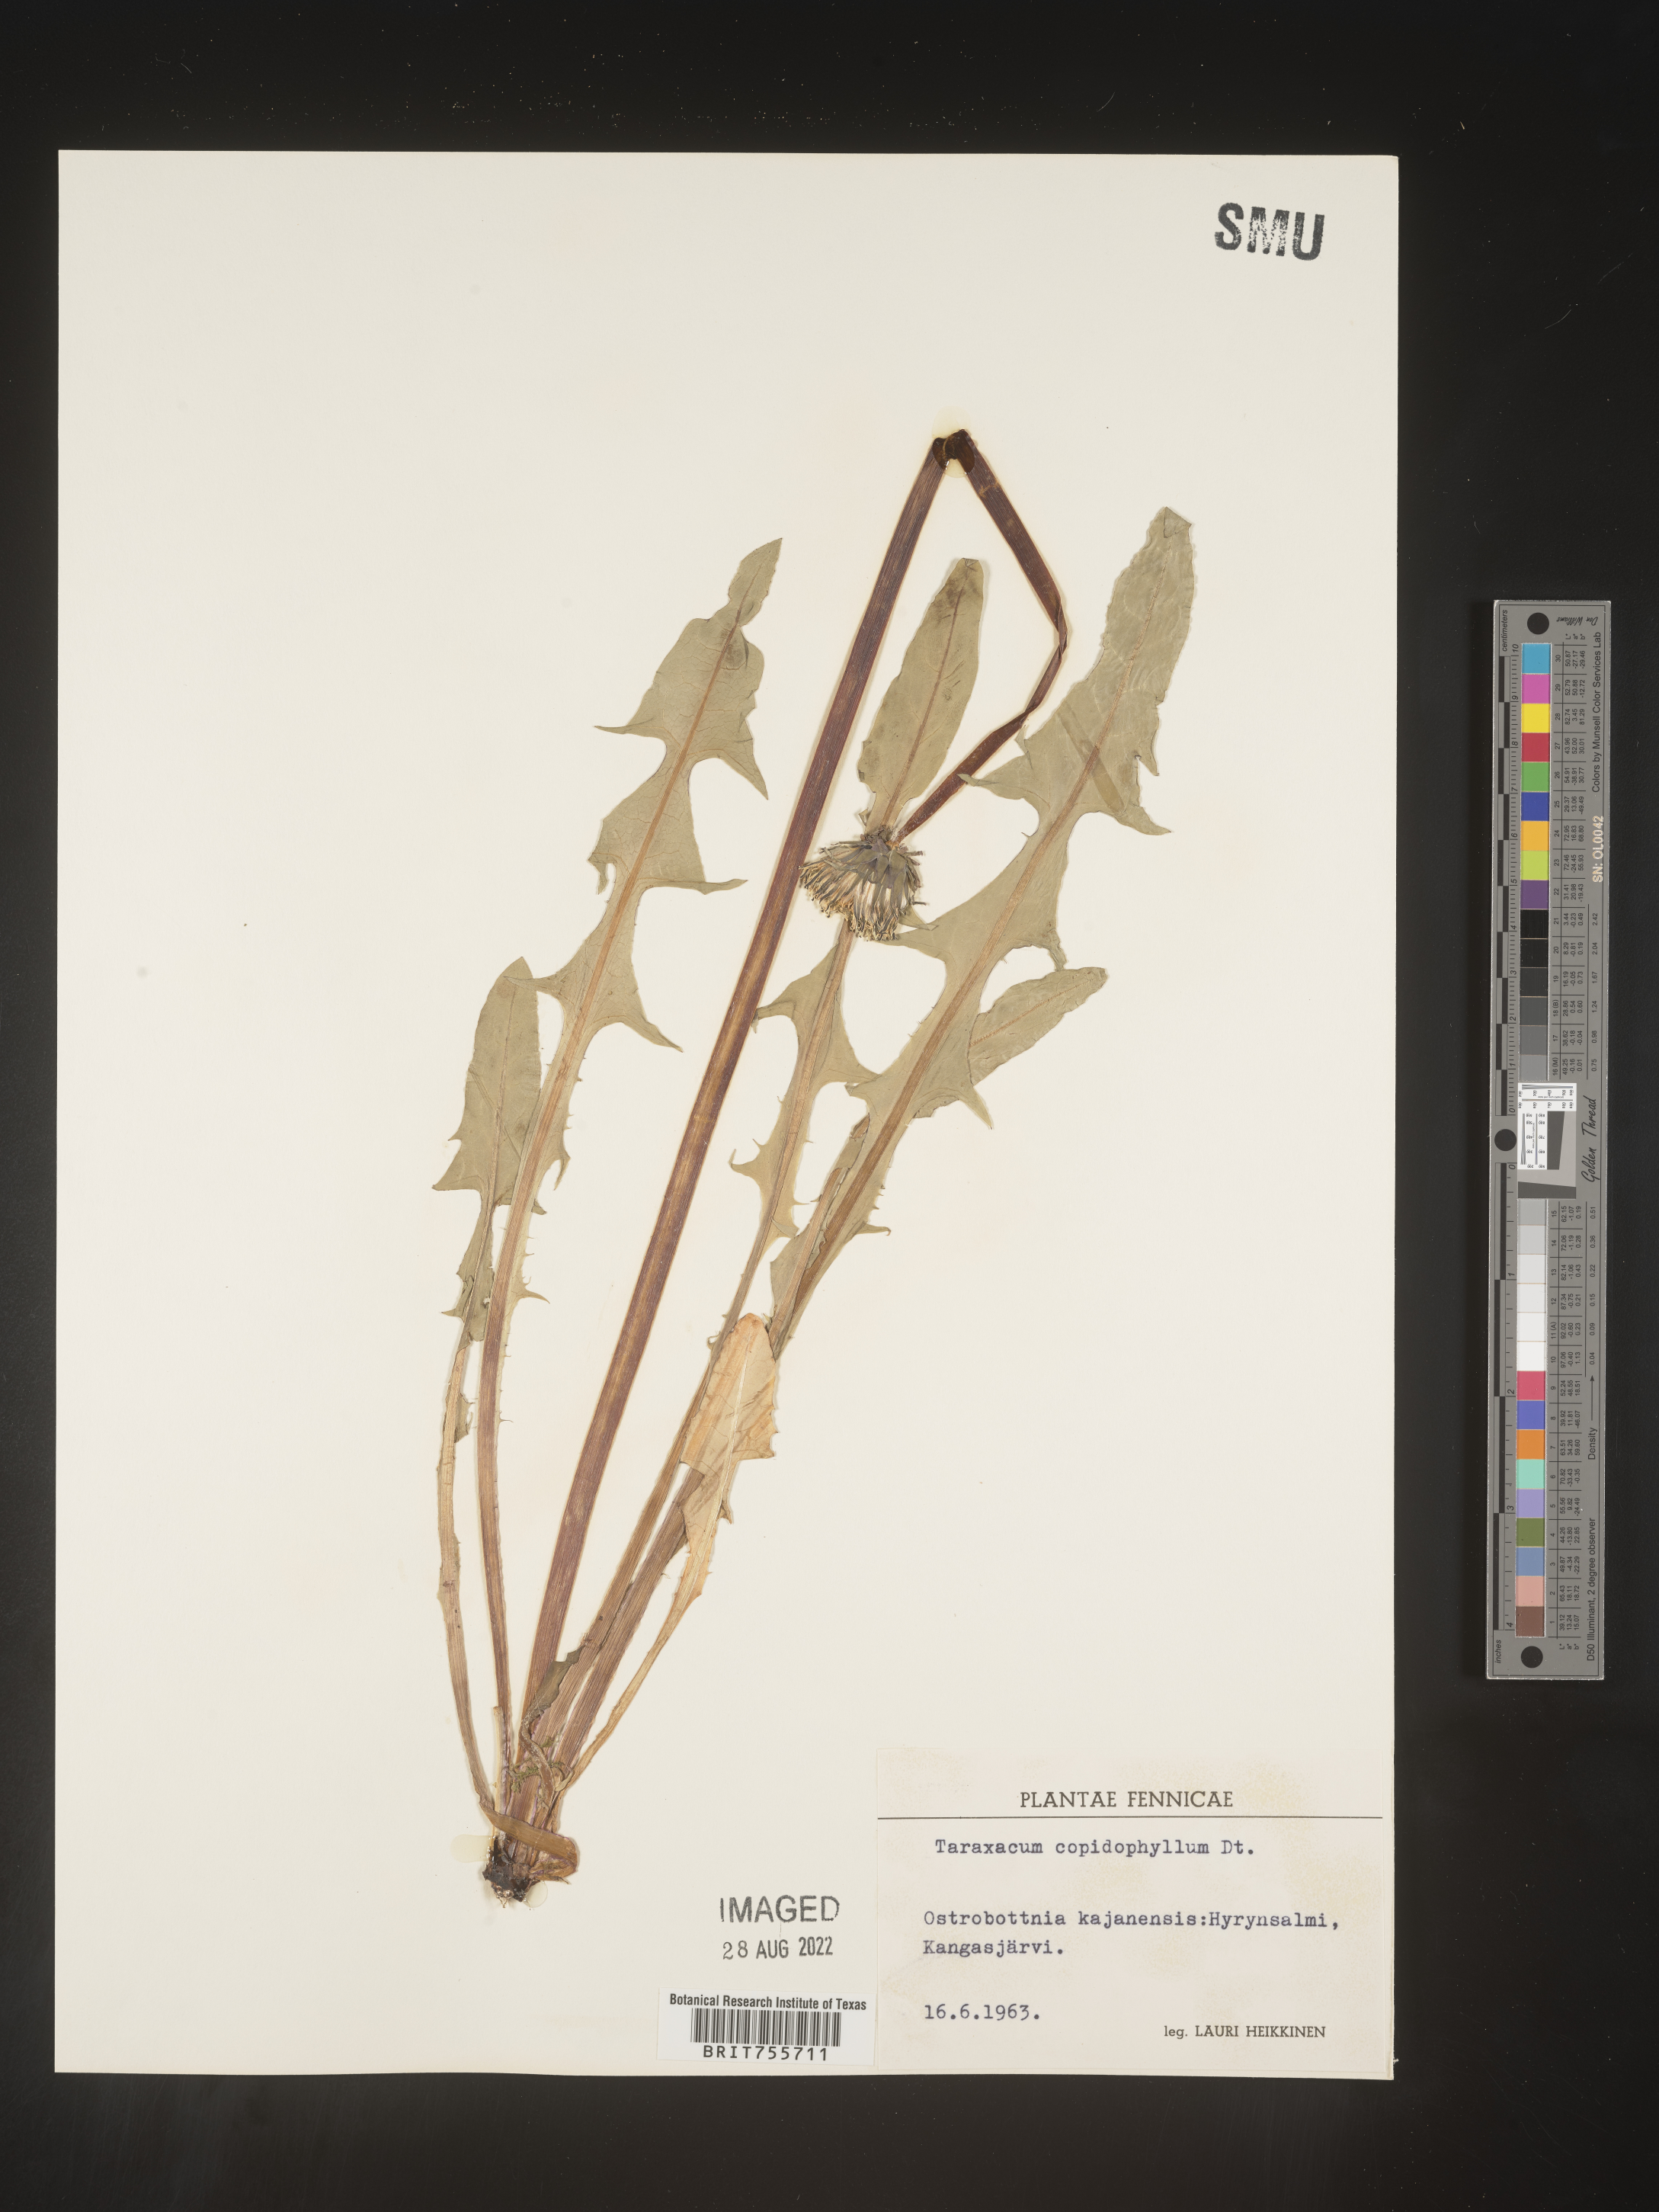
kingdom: Plantae
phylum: Tracheophyta
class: Magnoliopsida
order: Asterales
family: Asteraceae
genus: Taraxacum
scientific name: Taraxacum
